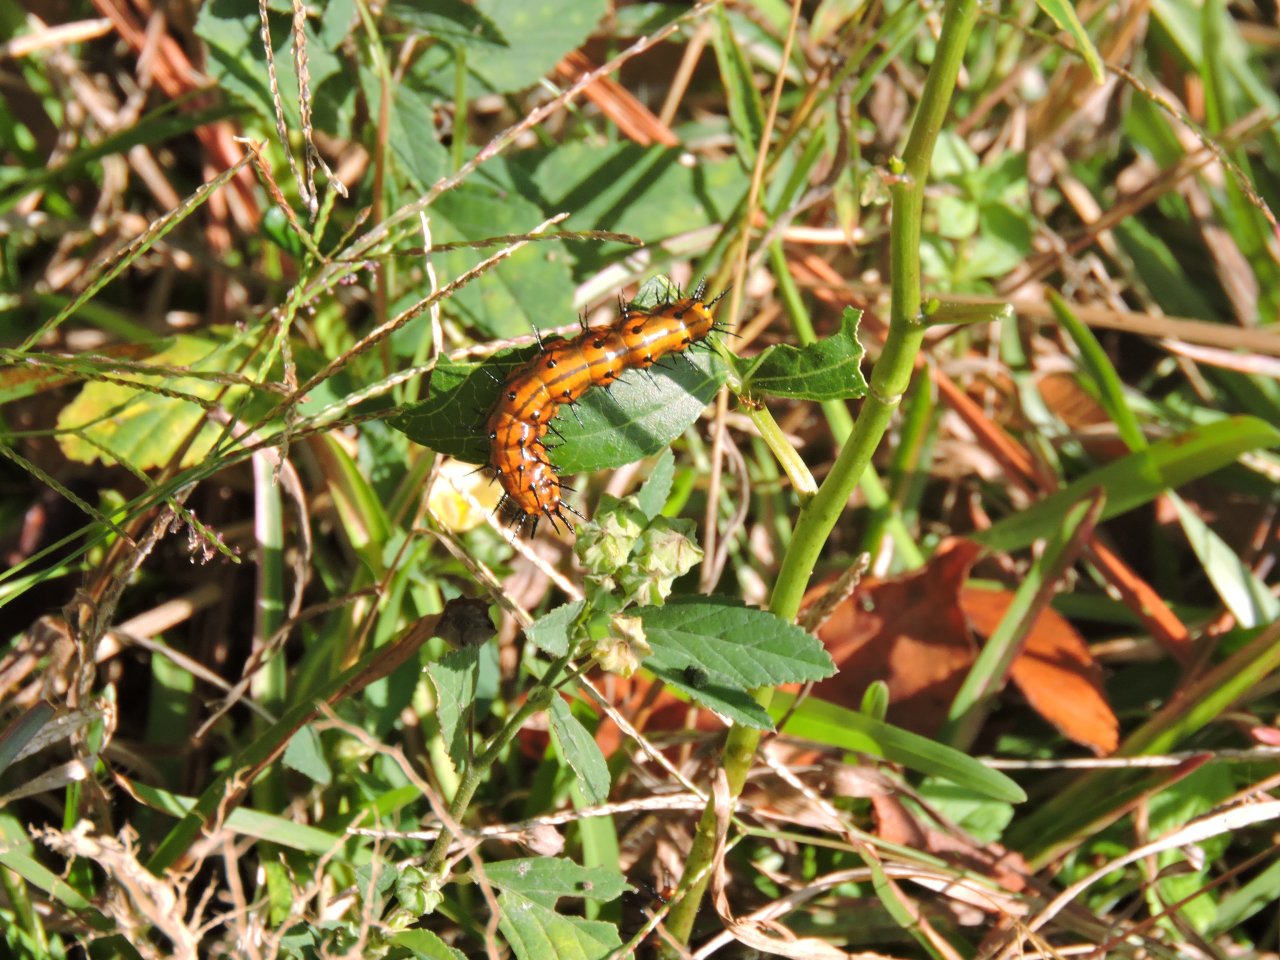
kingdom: Animalia
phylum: Arthropoda
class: Insecta
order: Lepidoptera
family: Nymphalidae
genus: Dione
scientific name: Dione vanillae
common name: Gulf Fritillary
